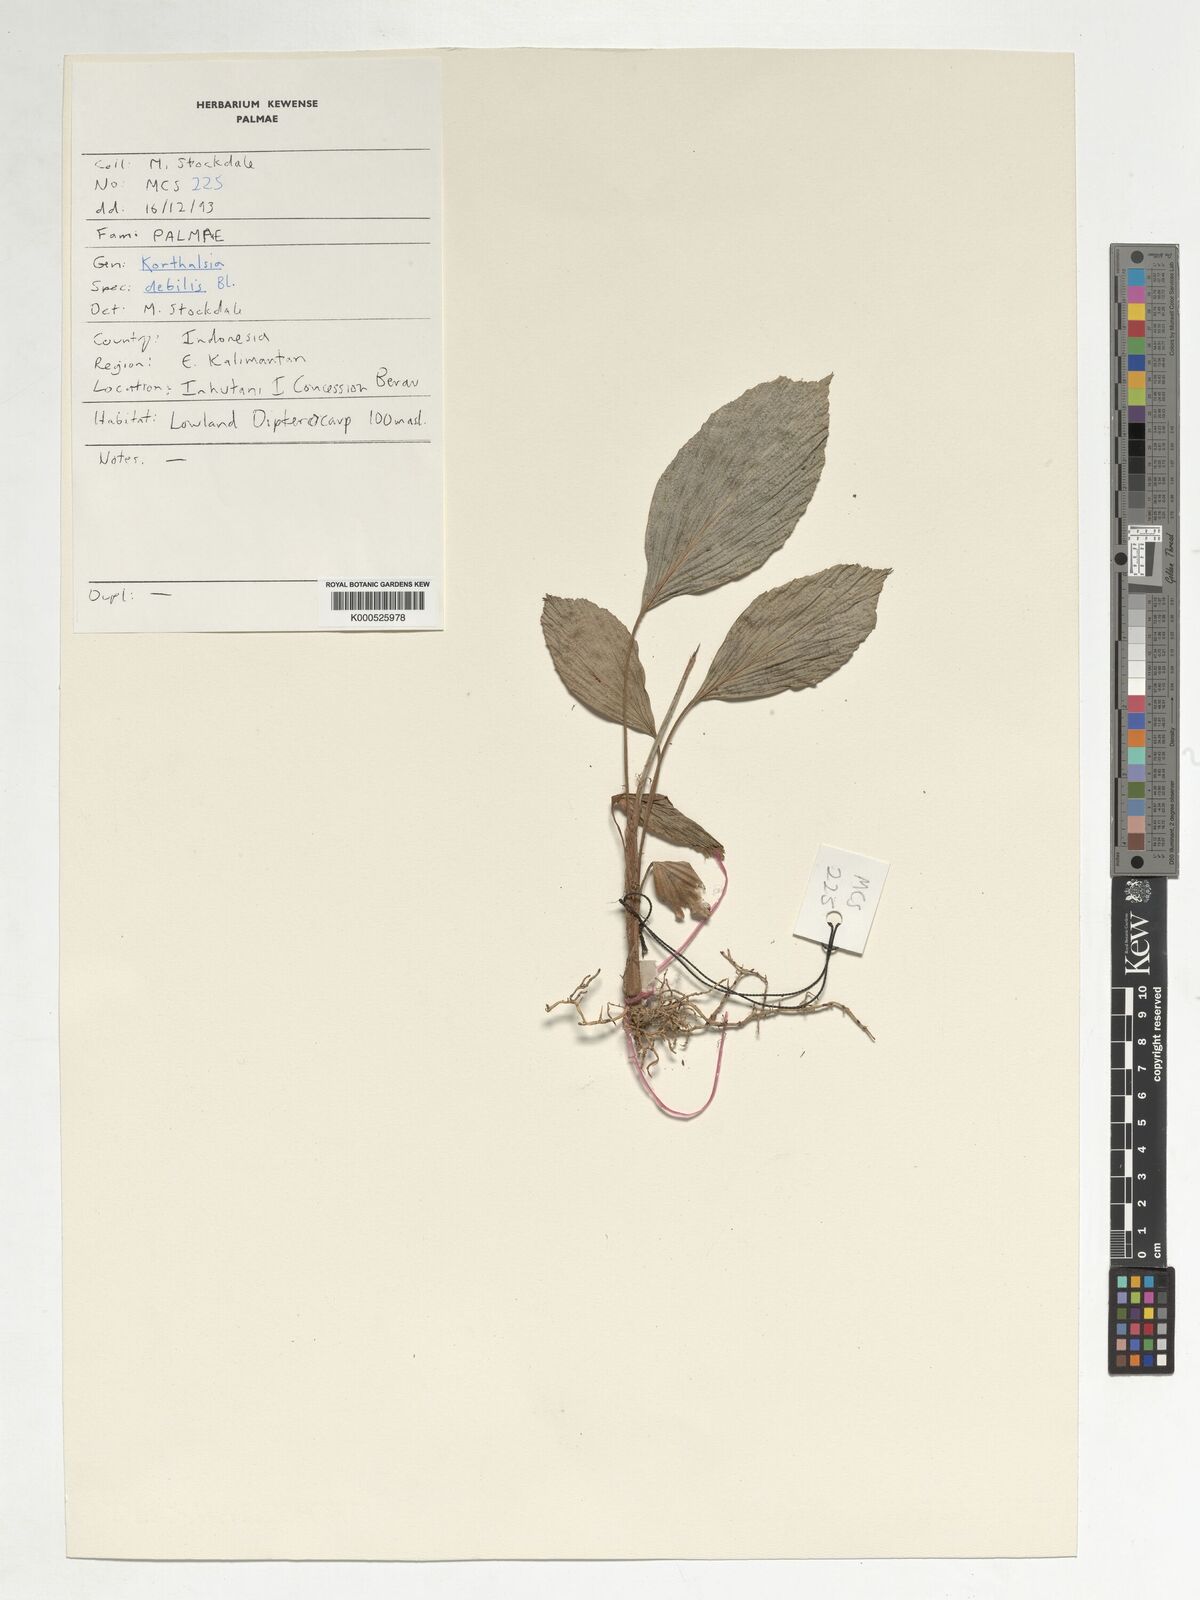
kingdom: Plantae
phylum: Tracheophyta
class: Liliopsida
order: Arecales
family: Arecaceae
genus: Korthalsia
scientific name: Korthalsia debilis
